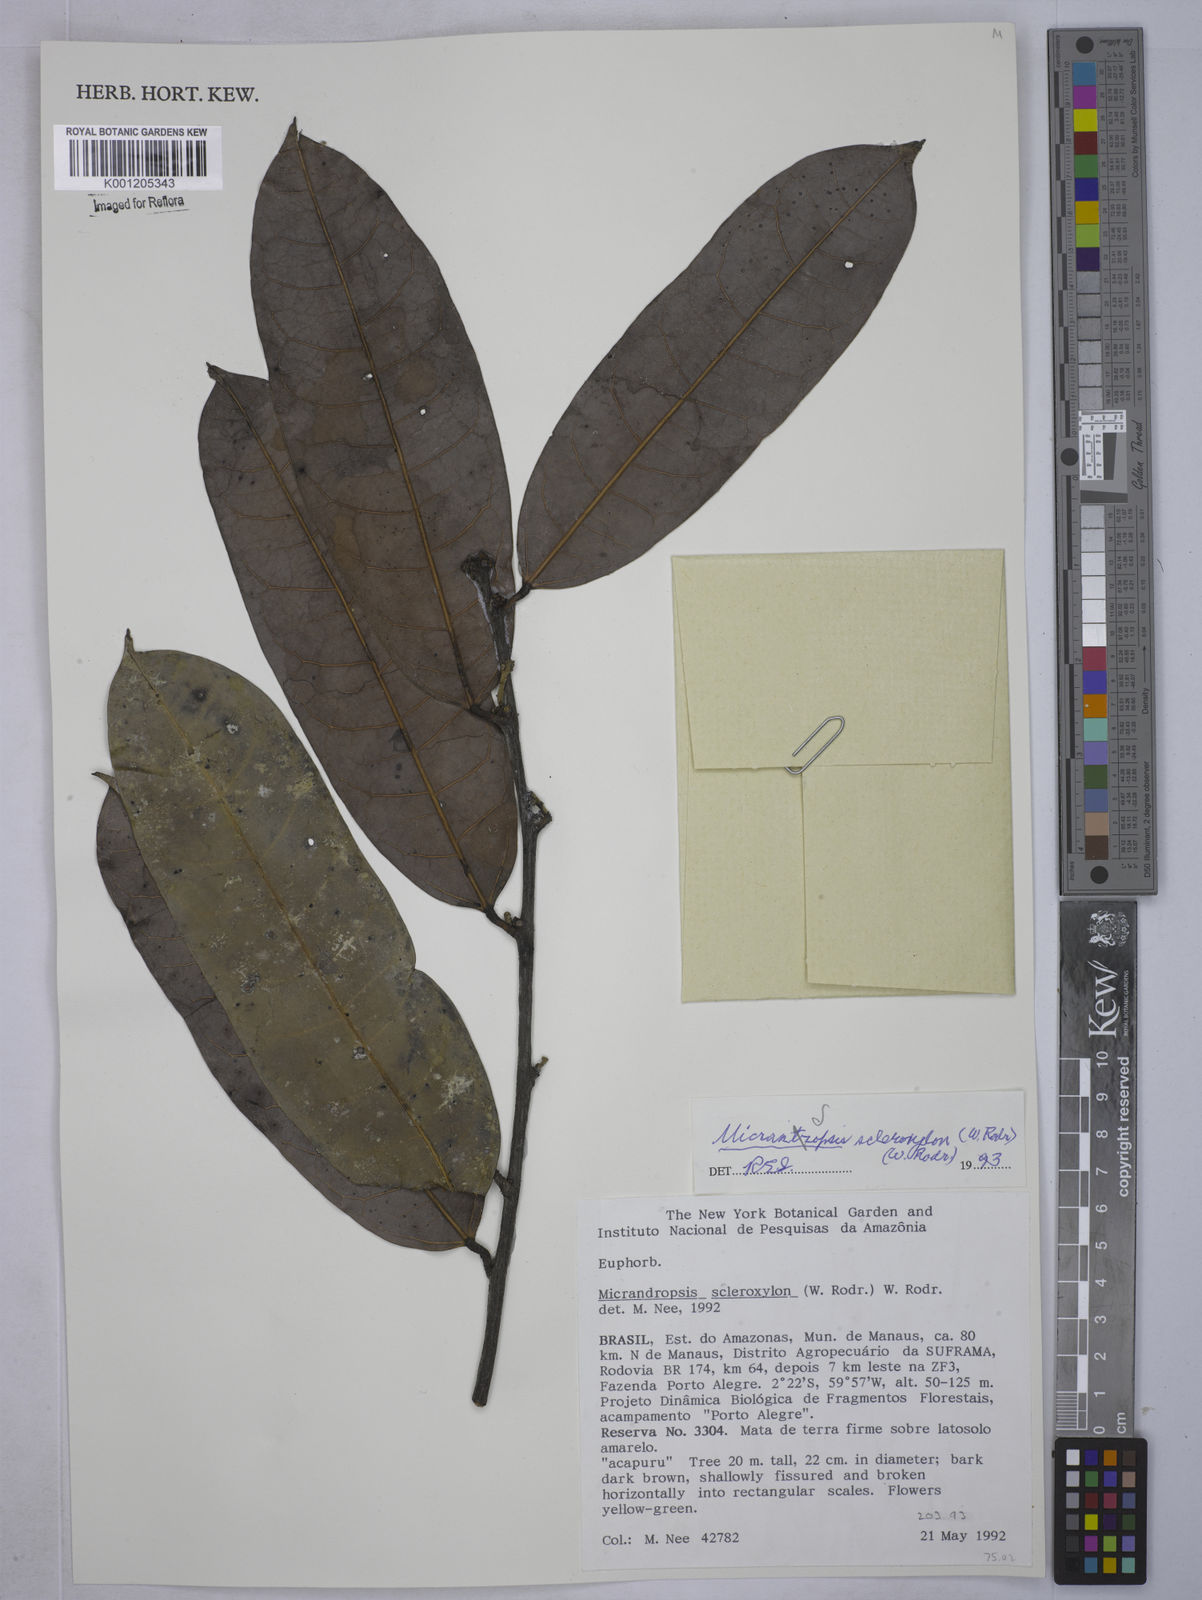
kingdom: Plantae
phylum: Tracheophyta
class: Magnoliopsida
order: Malpighiales
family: Euphorbiaceae
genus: Micrandropsis
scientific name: Micrandropsis scleroxylon
